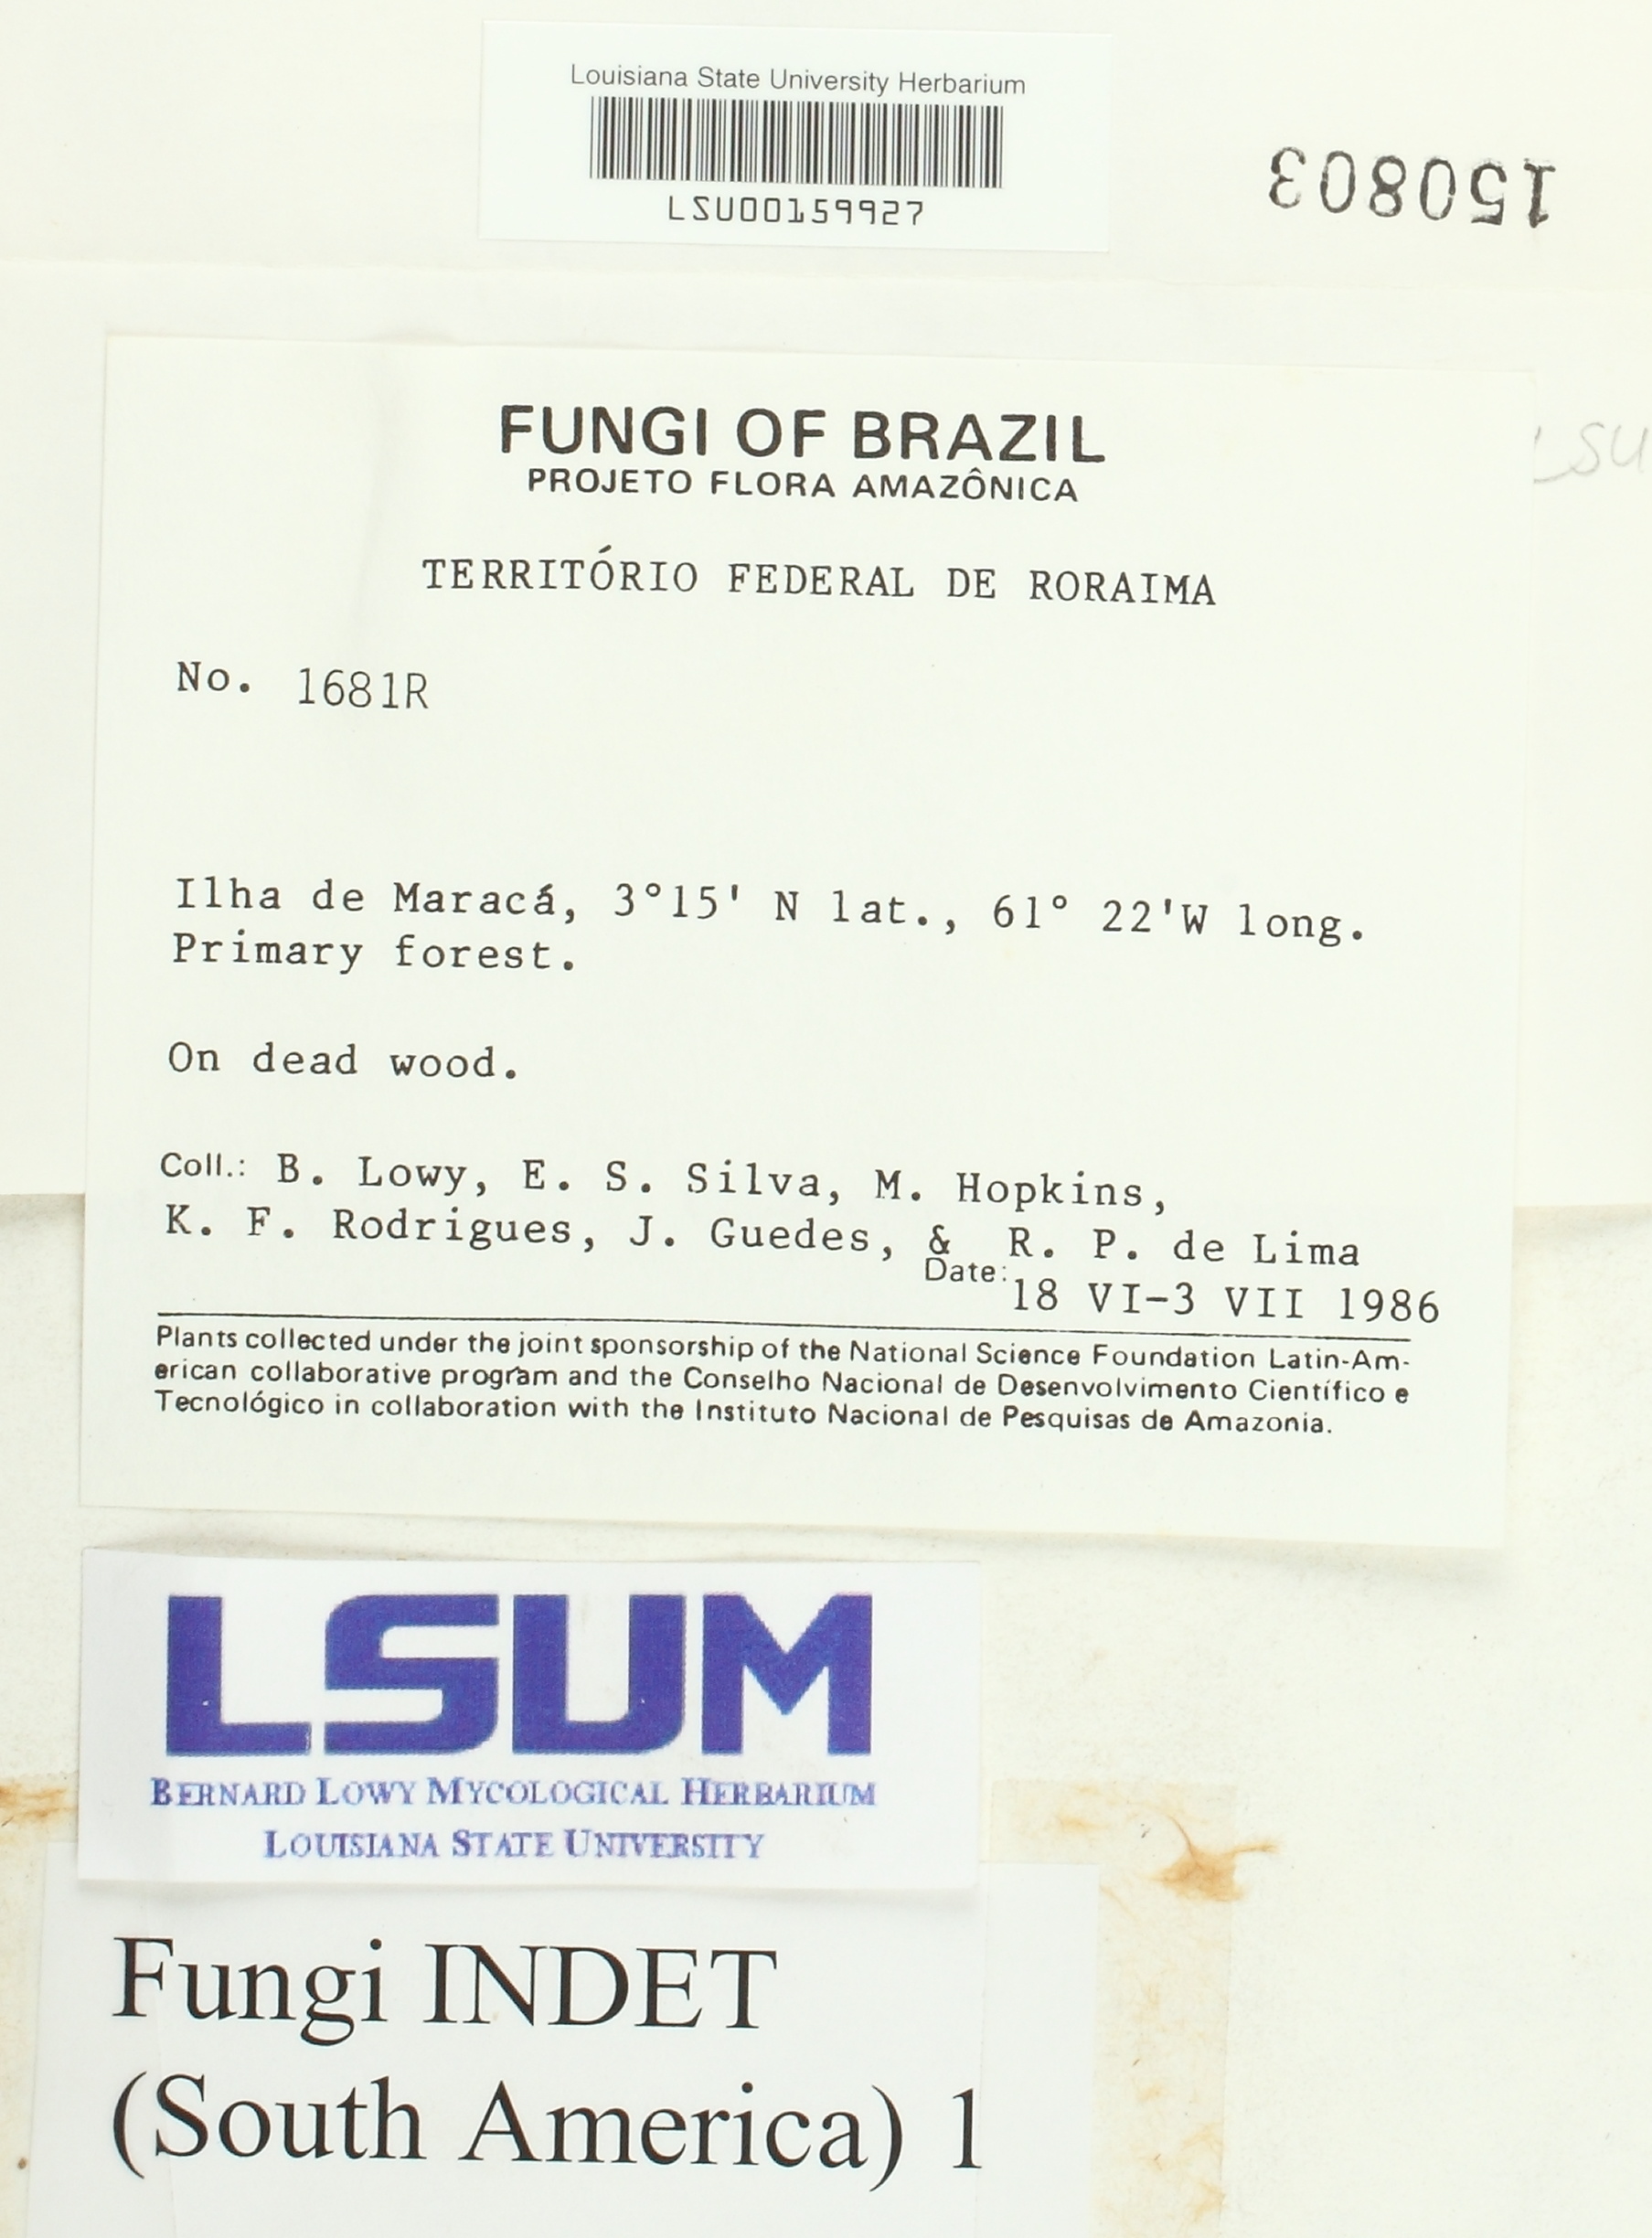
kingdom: Fungi
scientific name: Fungi
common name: Fungi
